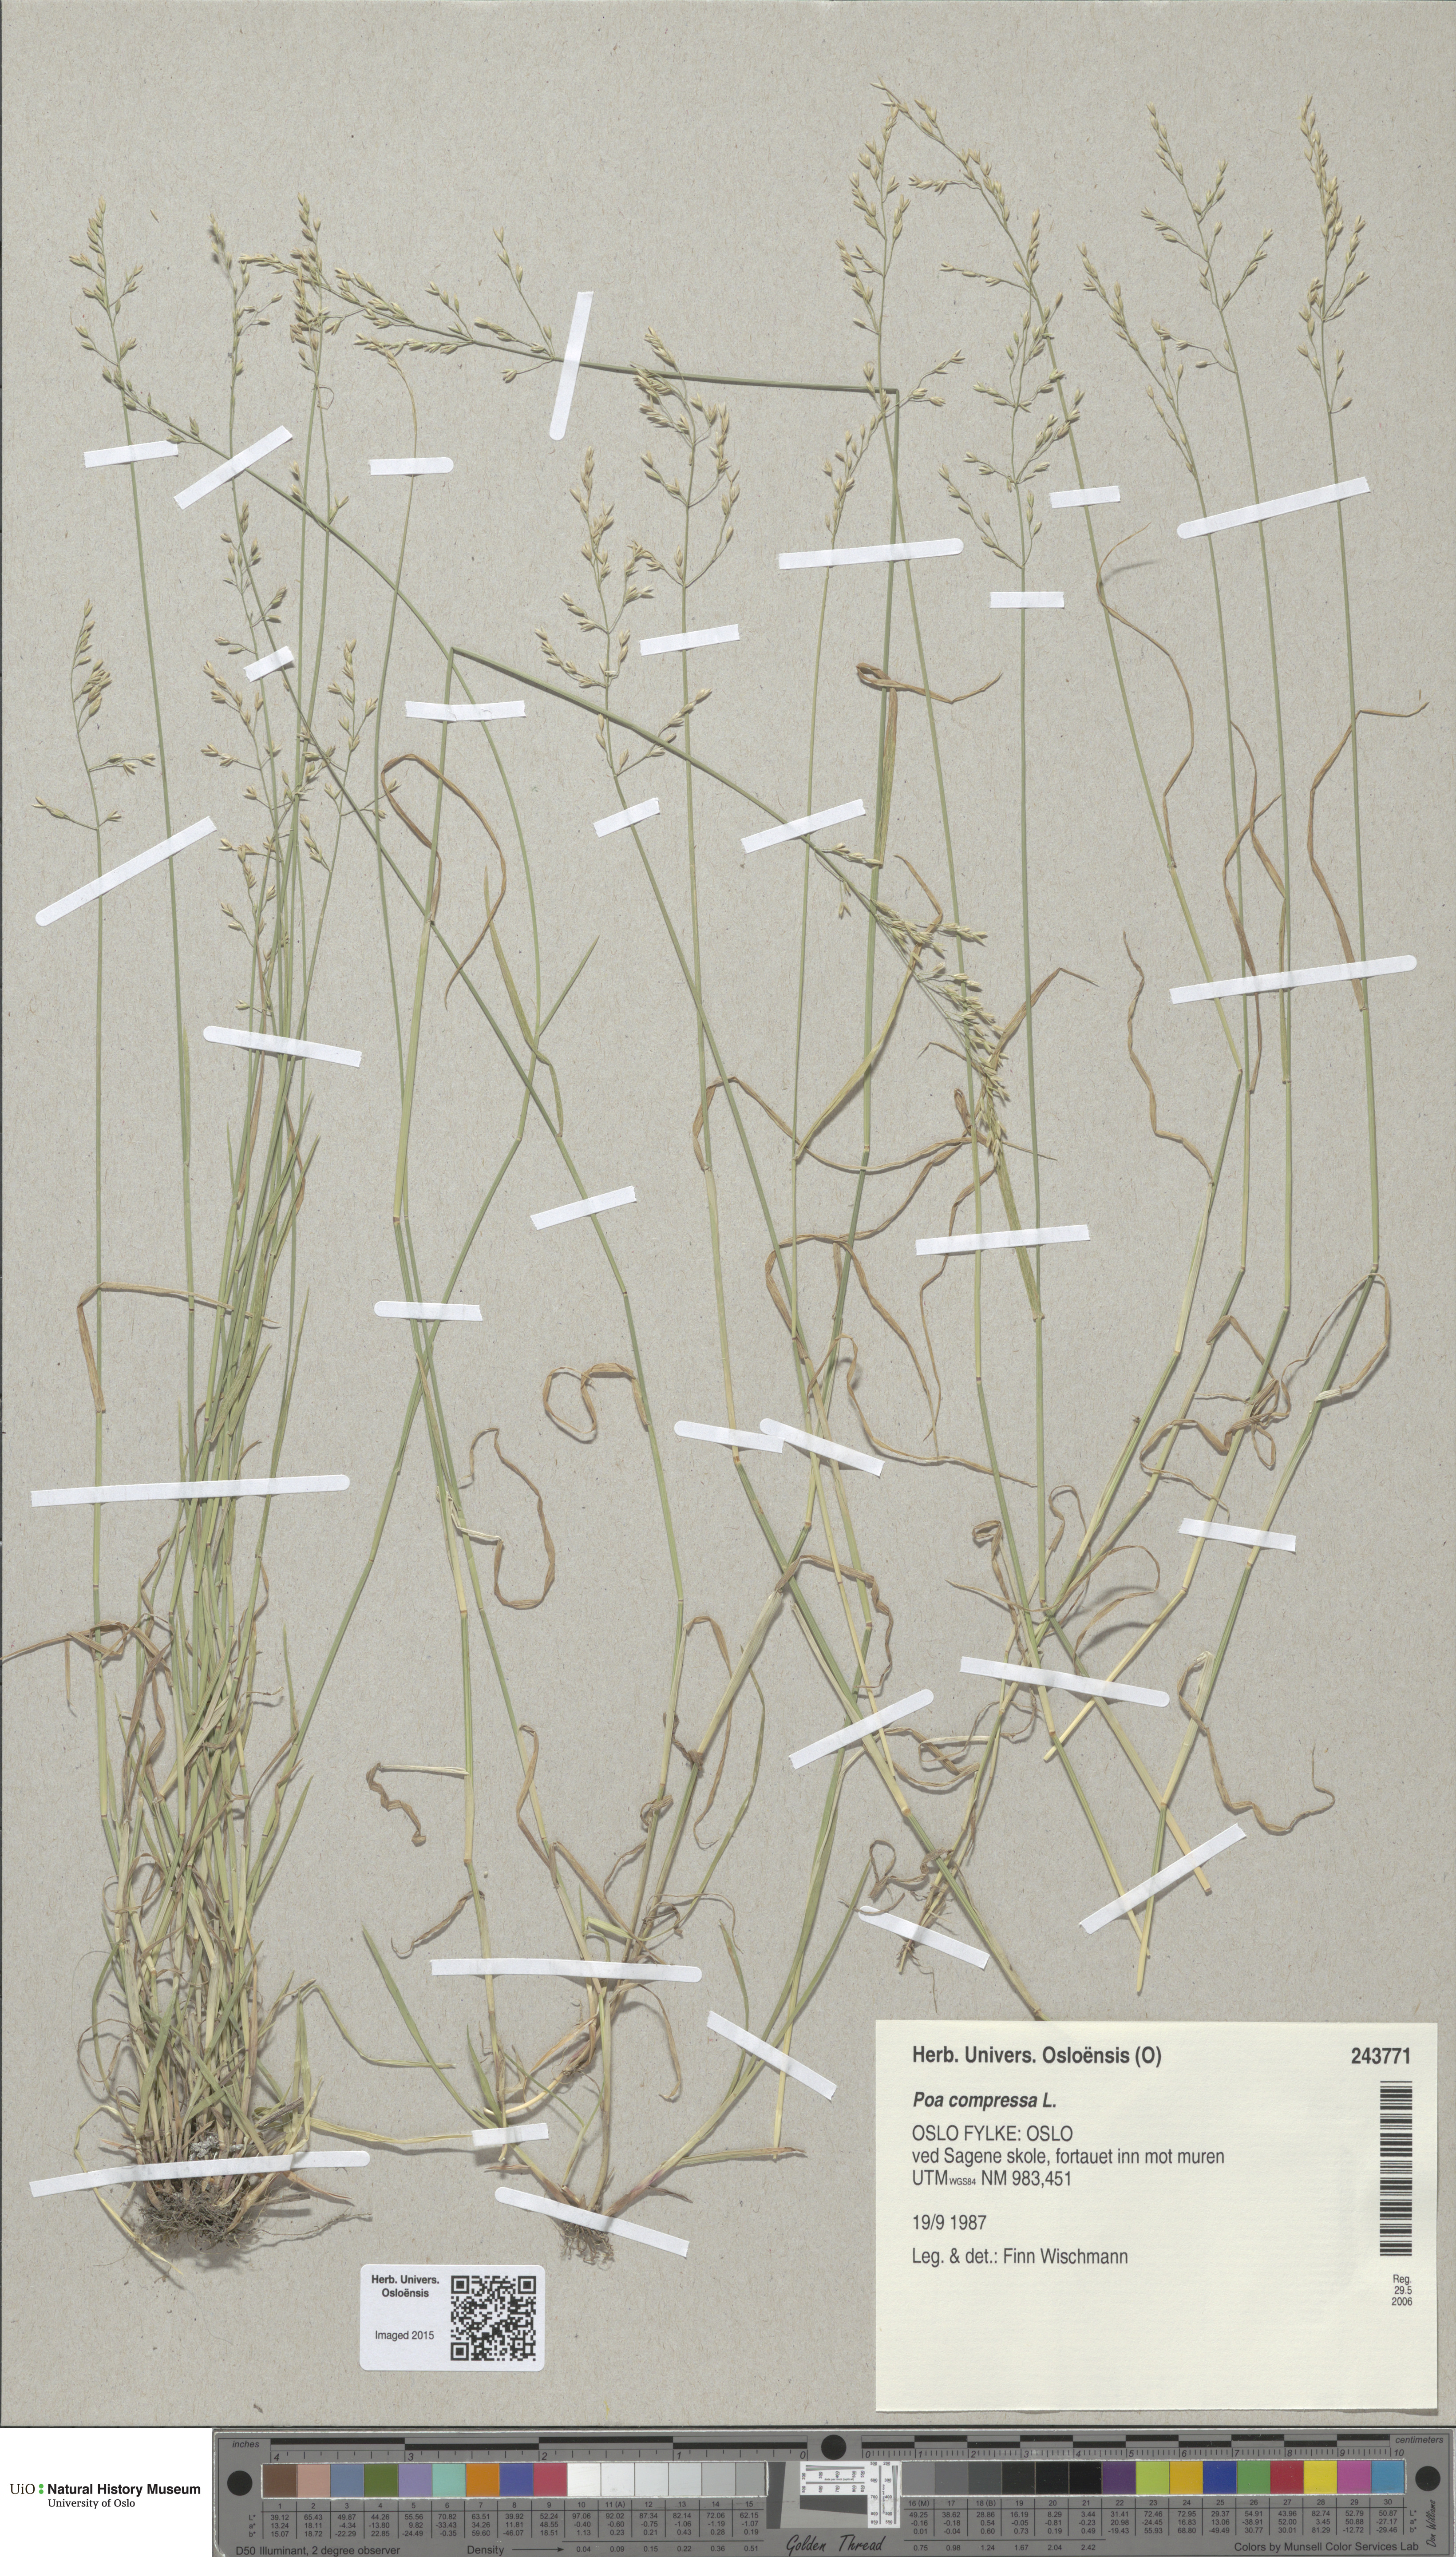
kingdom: Plantae
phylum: Tracheophyta
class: Liliopsida
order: Poales
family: Poaceae
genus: Poa
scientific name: Poa compressa
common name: Canada bluegrass
